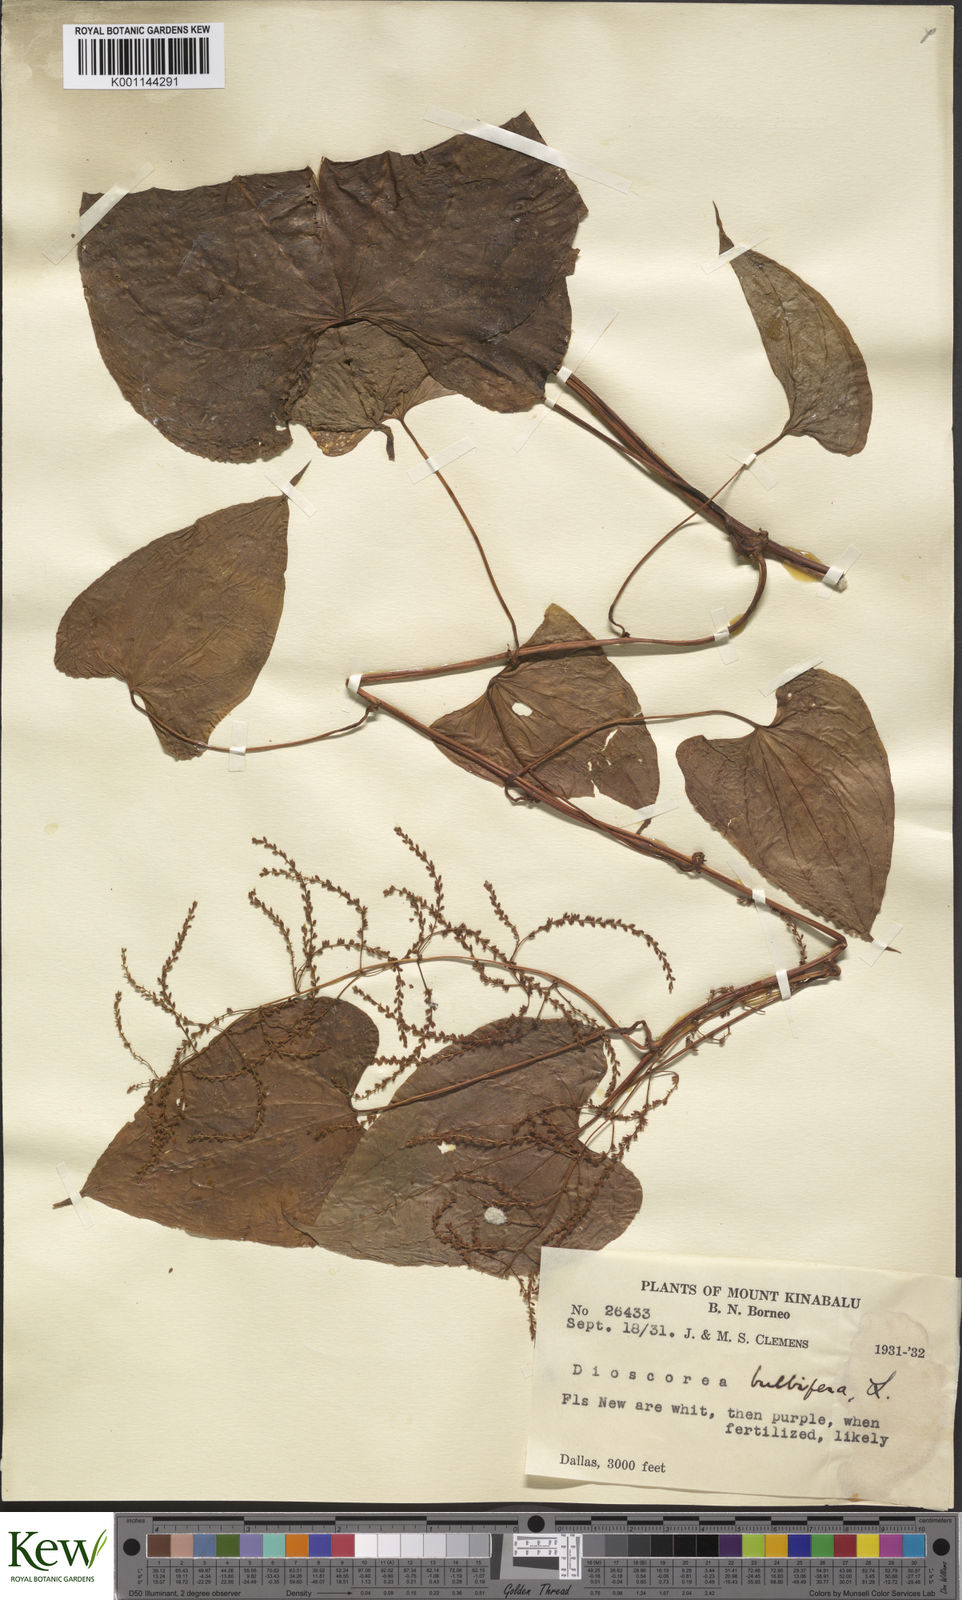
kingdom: Plantae
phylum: Tracheophyta
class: Liliopsida
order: Dioscoreales
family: Dioscoreaceae
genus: Dioscorea
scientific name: Dioscorea bulbifera
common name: Air yam
